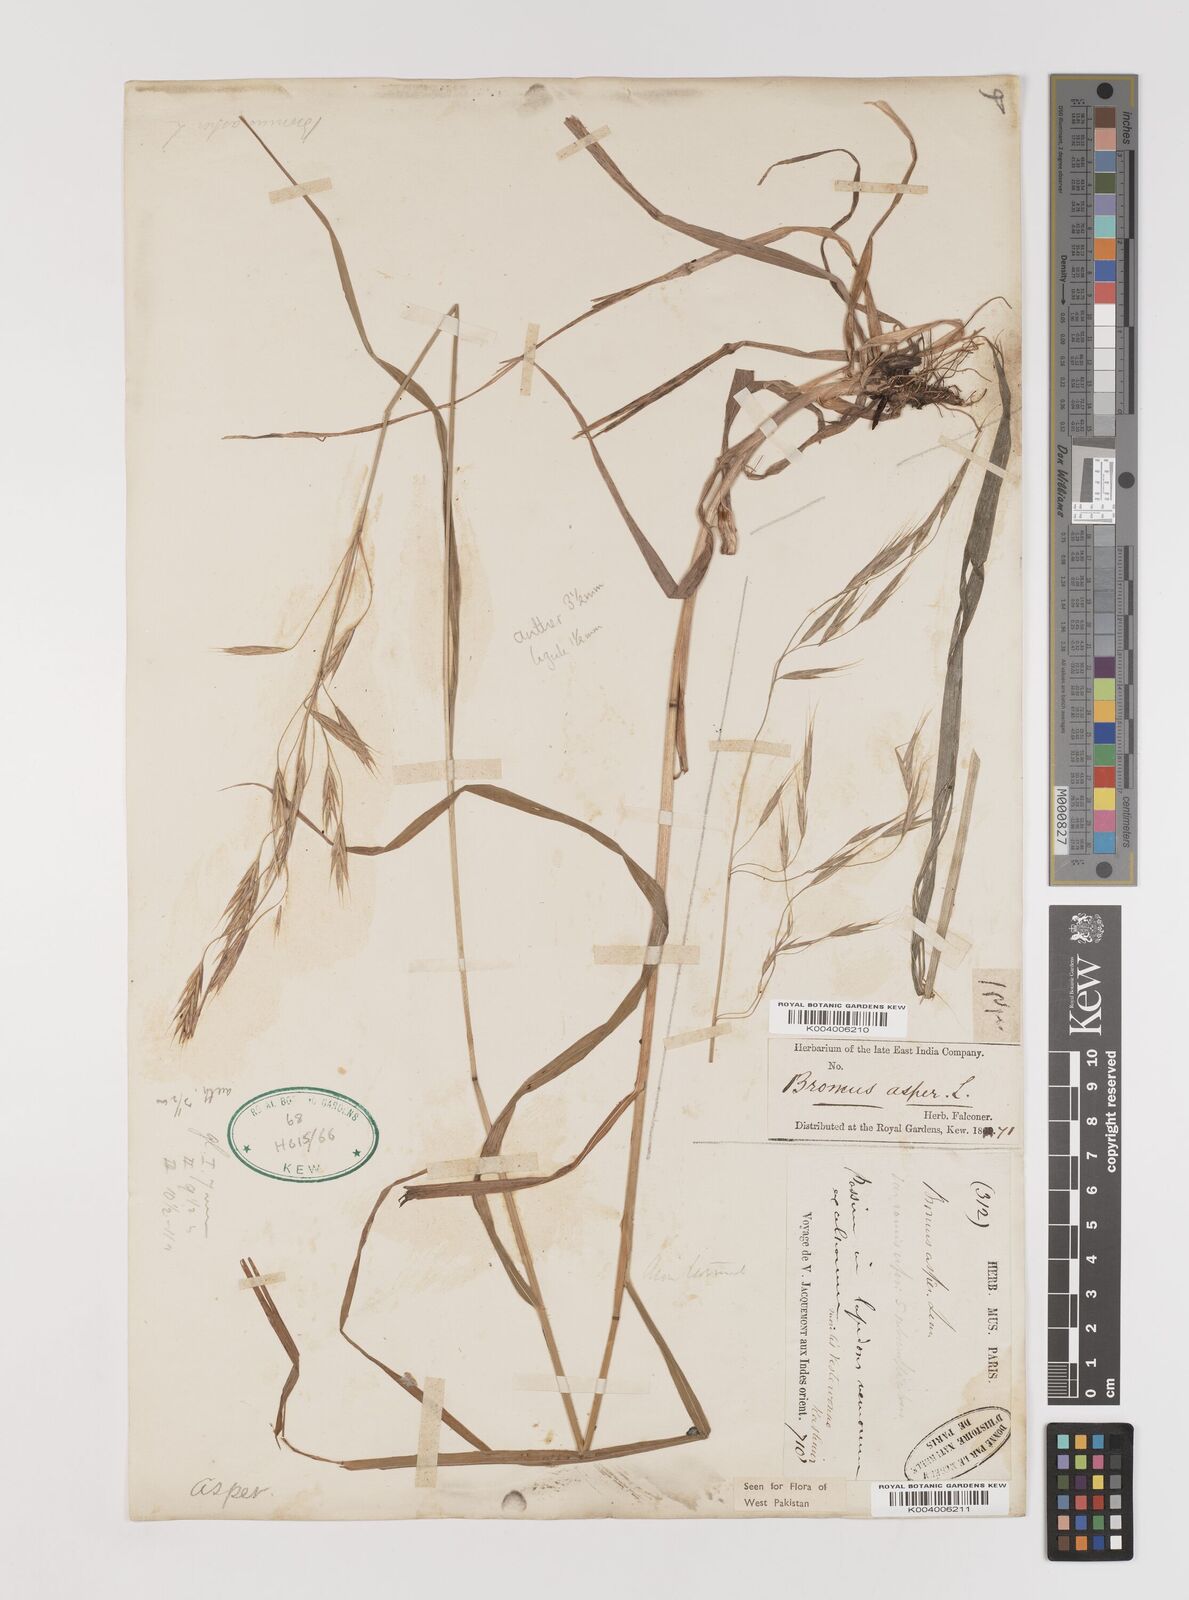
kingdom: Plantae
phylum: Tracheophyta
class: Liliopsida
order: Poales
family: Poaceae
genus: Brachypodium
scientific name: Brachypodium retusum
